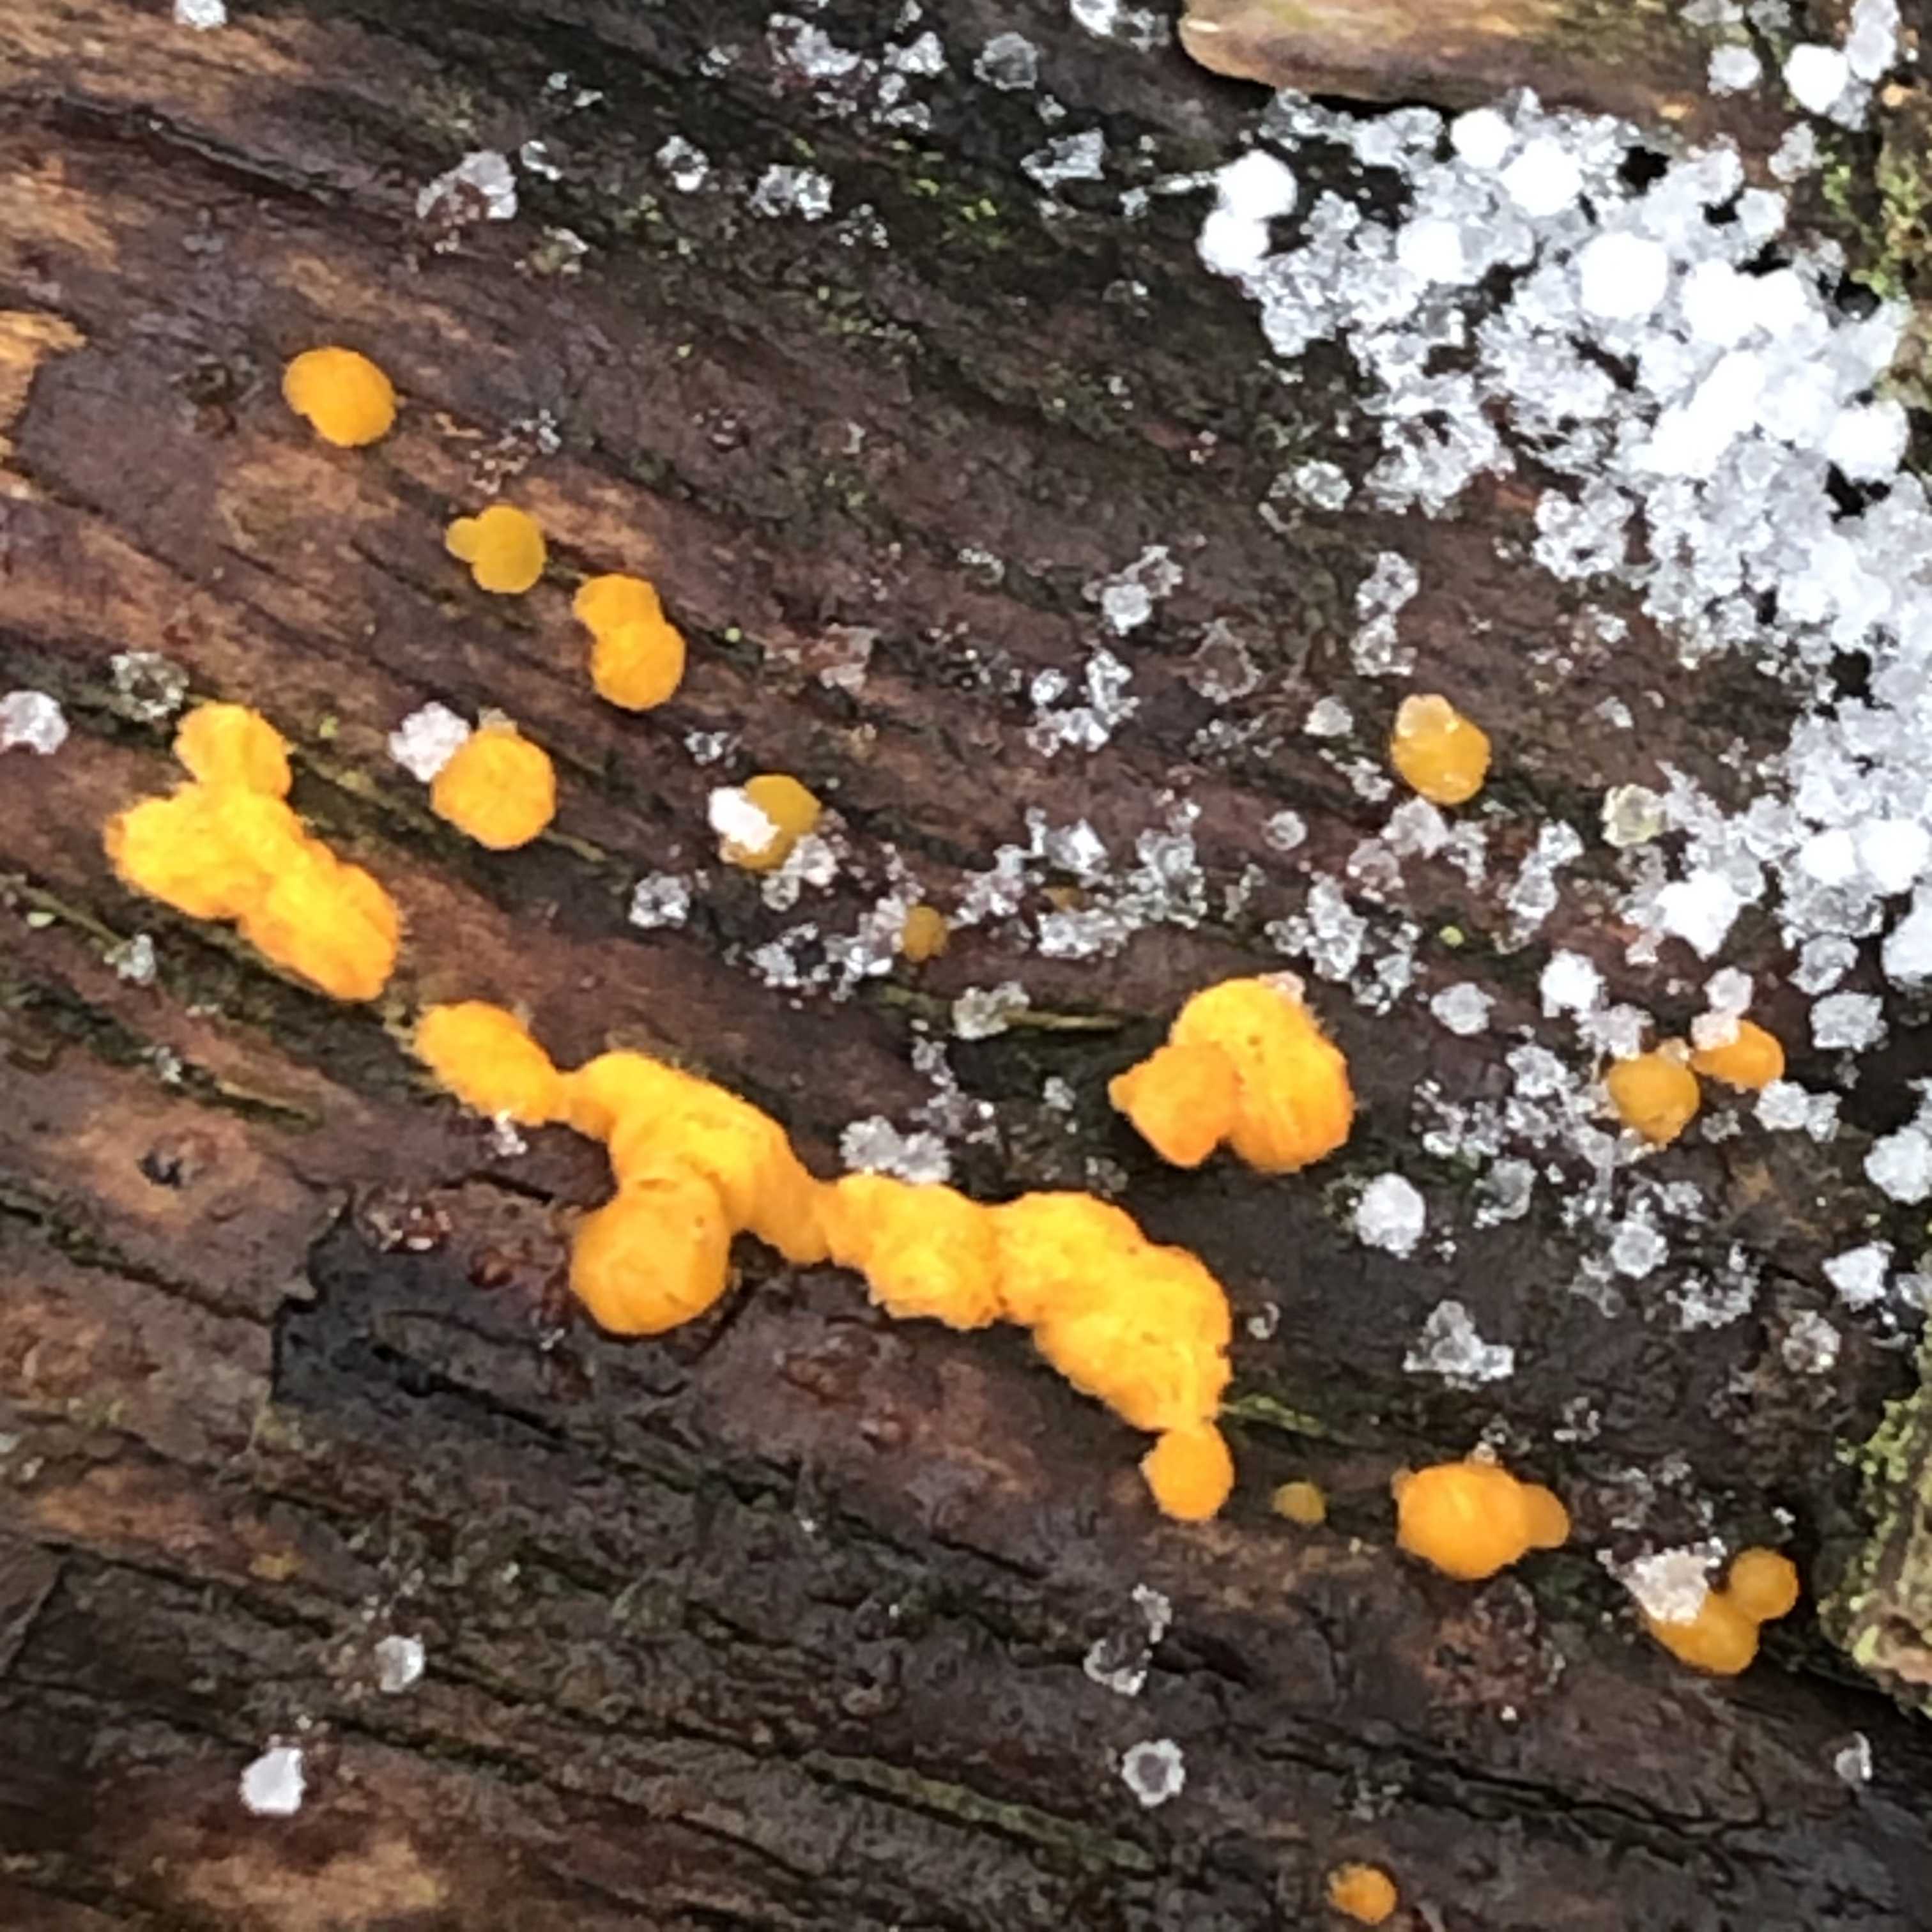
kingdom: Fungi
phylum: Basidiomycota
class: Dacrymycetes
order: Dacrymycetales
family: Dacrymycetaceae
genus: Dacrymyces
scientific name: Dacrymyces stillatus
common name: almindelig tåresvamp
